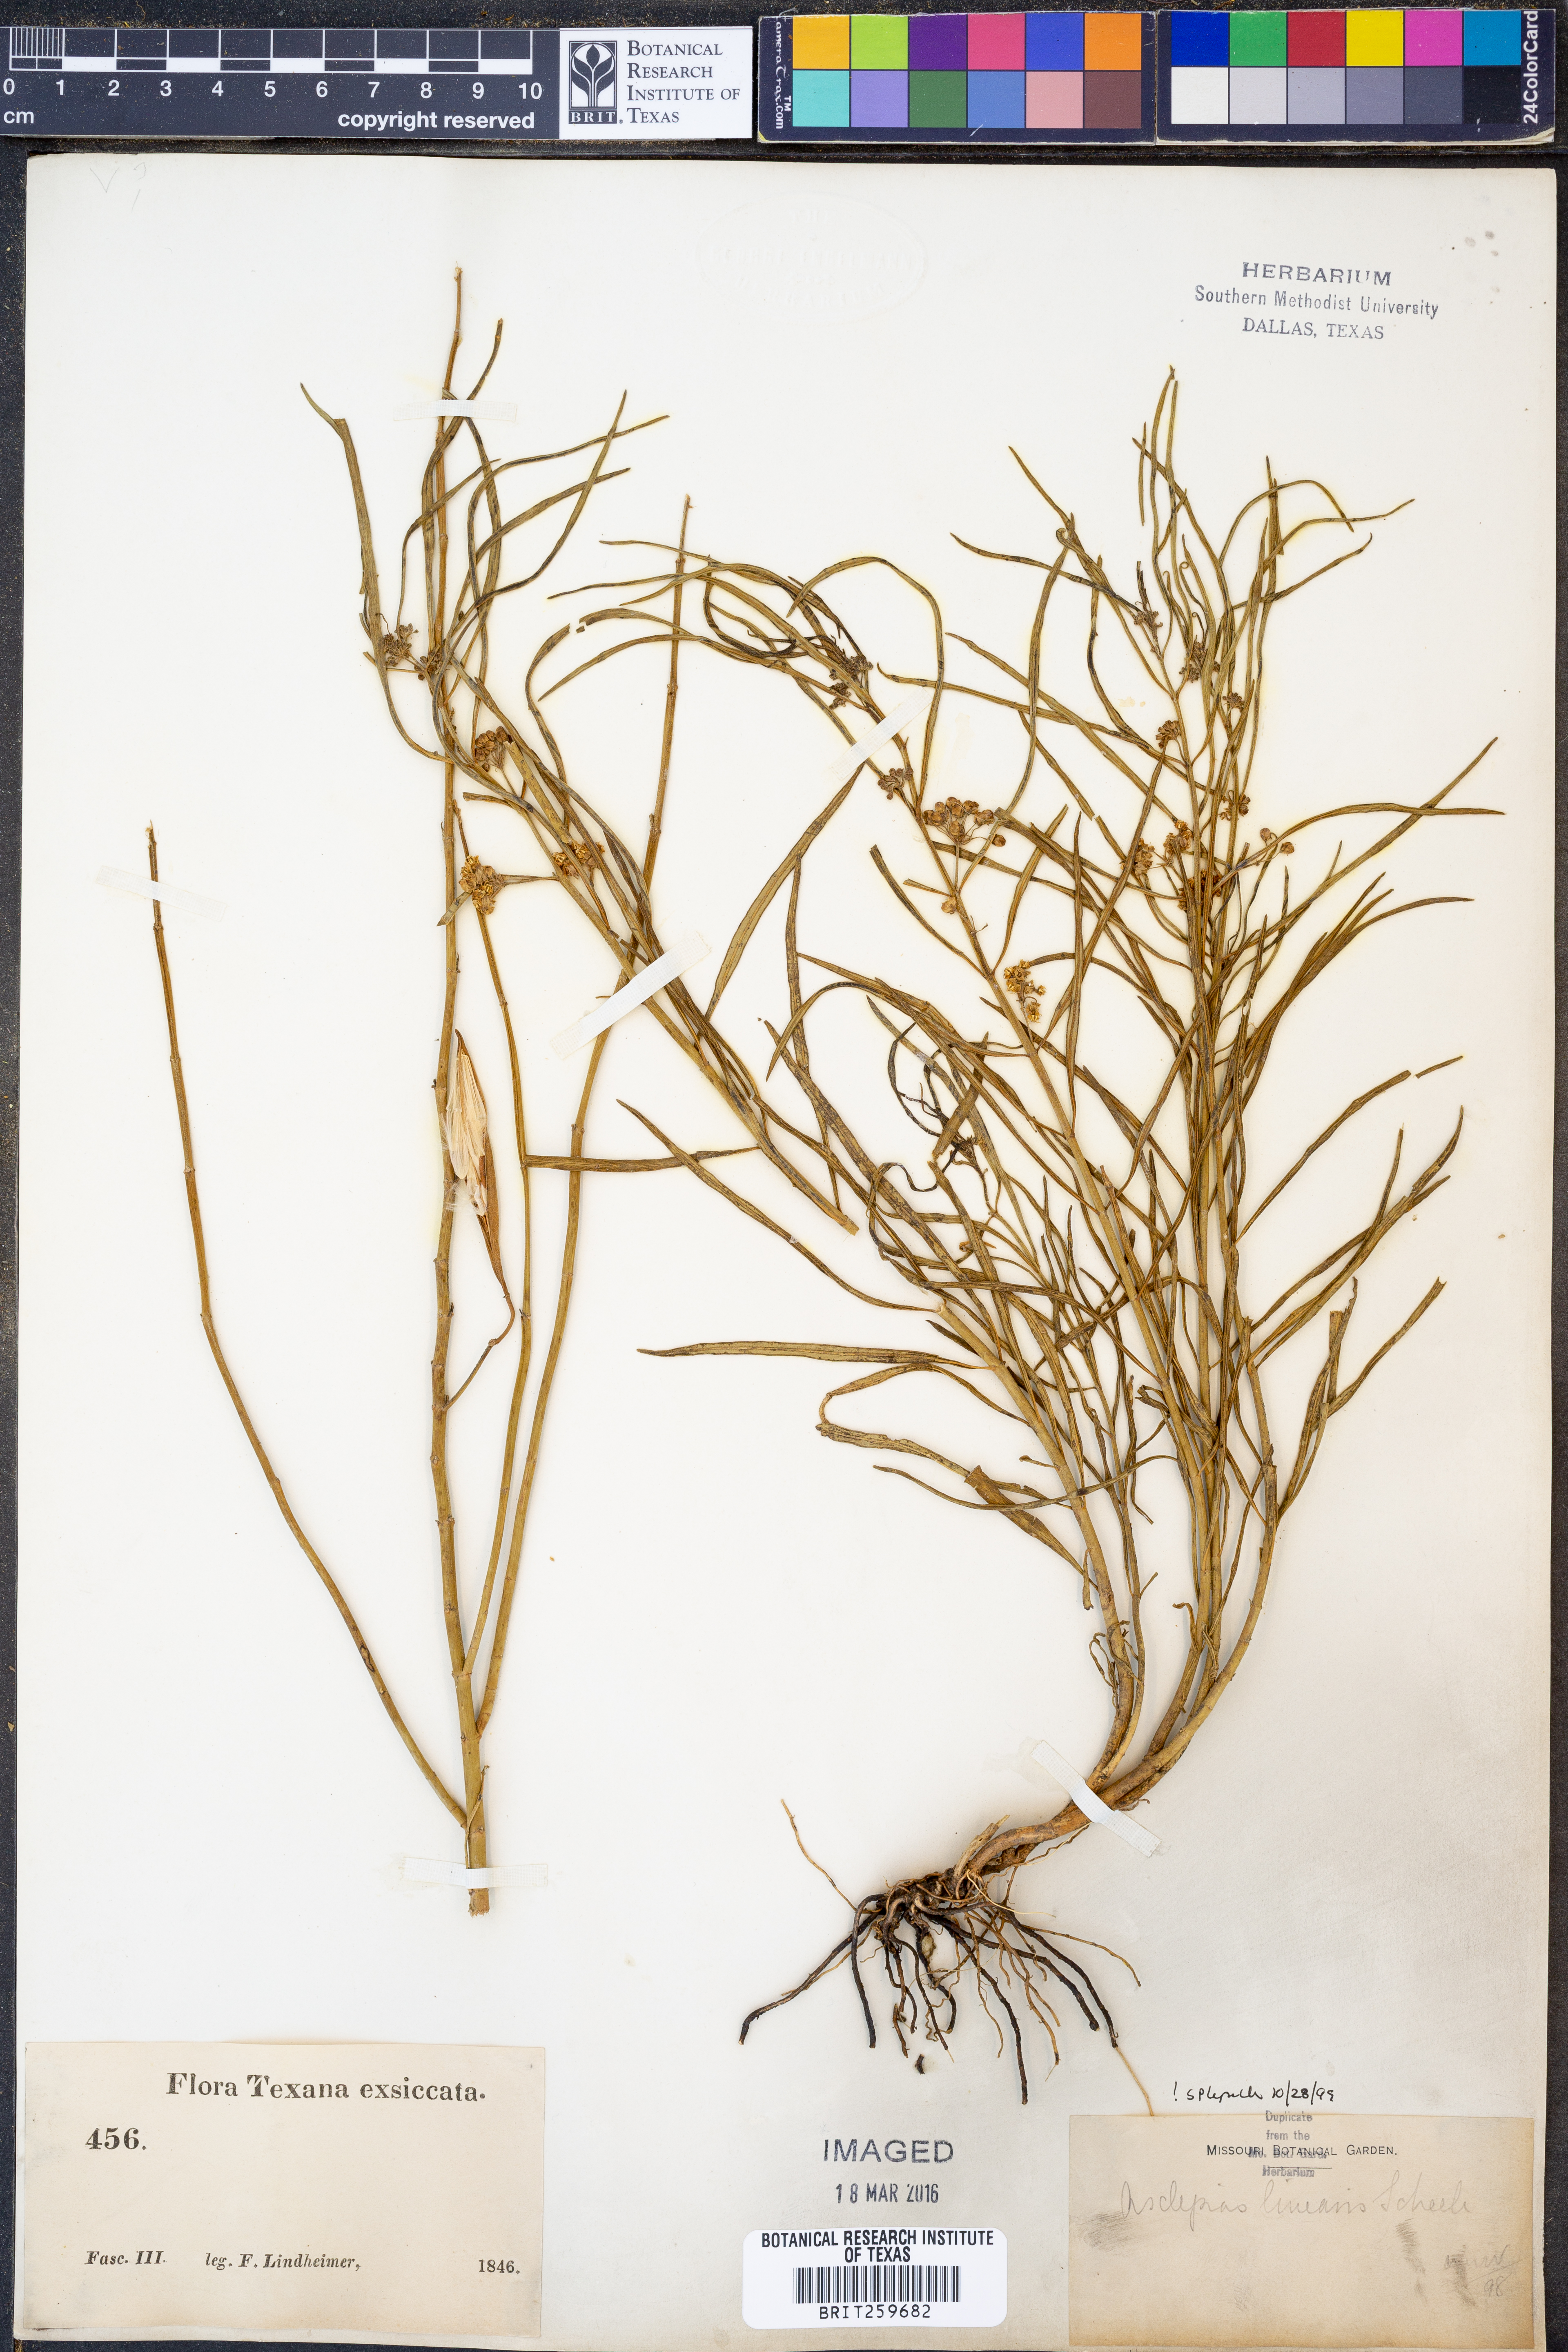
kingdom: Plantae
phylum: Tracheophyta
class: Magnoliopsida
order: Gentianales
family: Apocynaceae
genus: Asclepias
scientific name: Asclepias linearis
